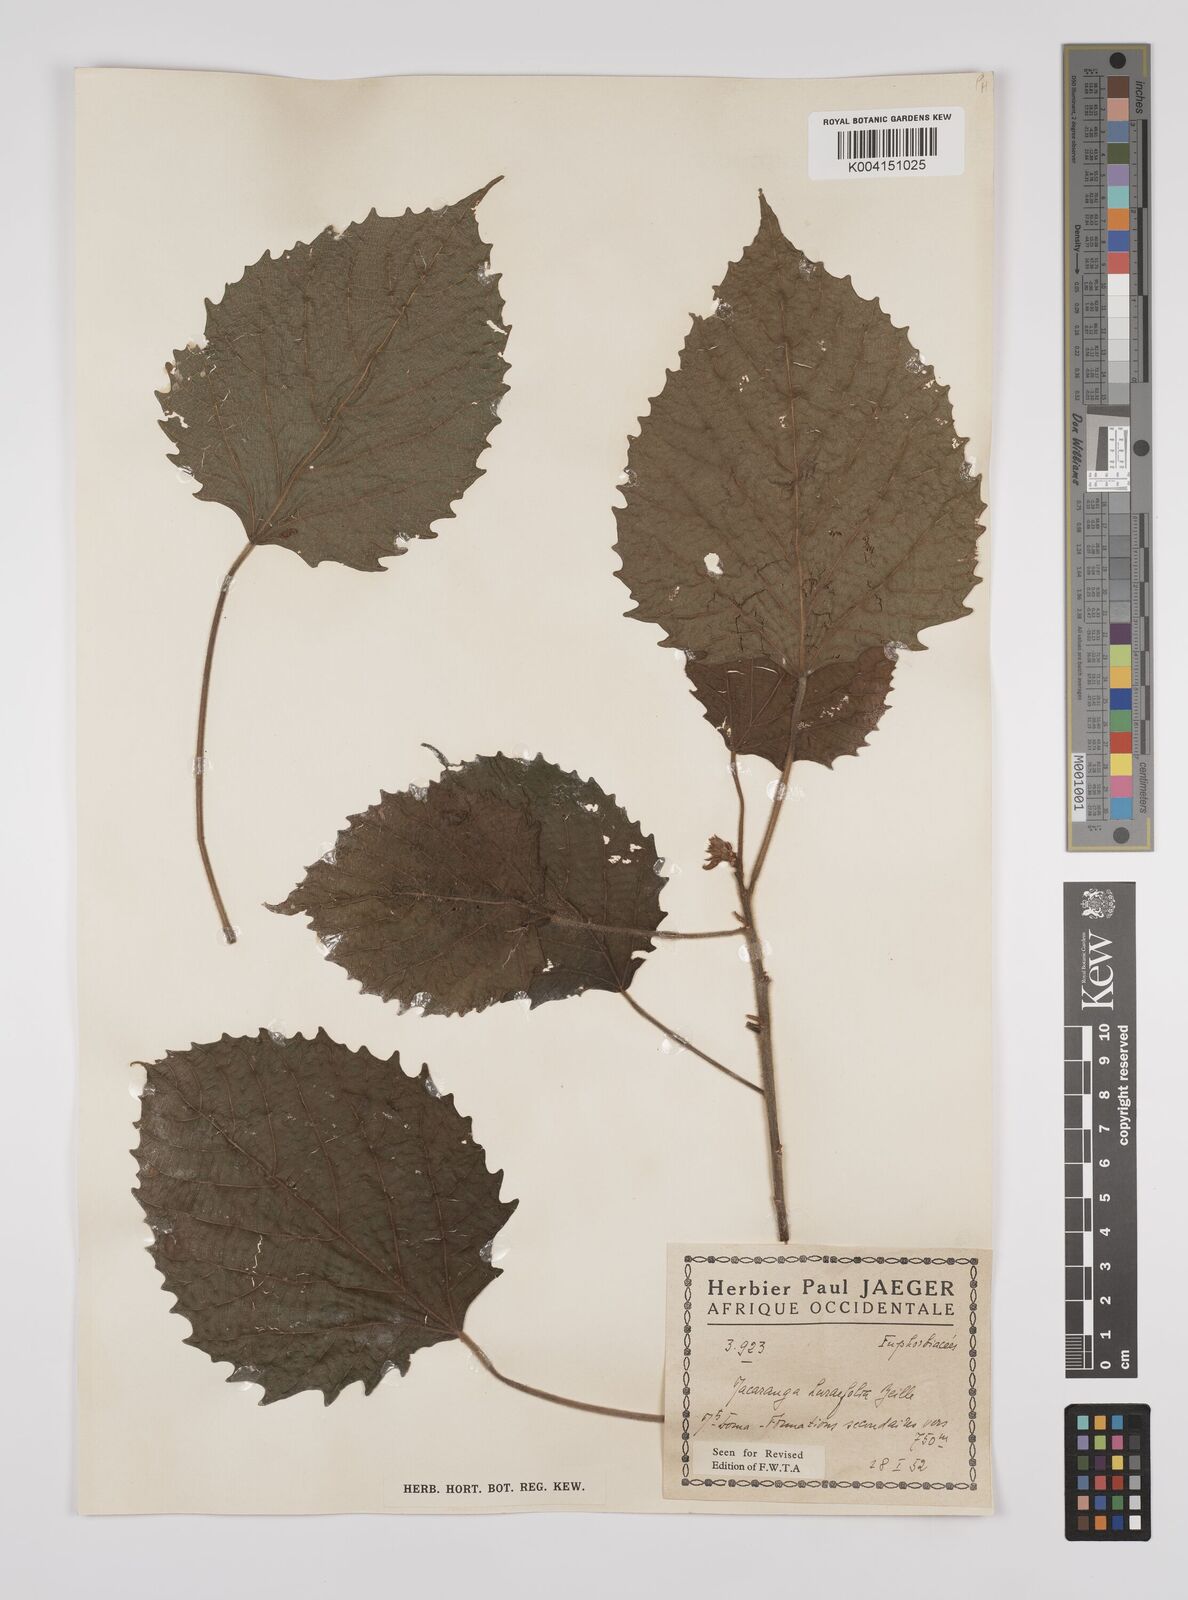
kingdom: Plantae
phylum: Tracheophyta
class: Magnoliopsida
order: Malpighiales
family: Euphorbiaceae
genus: Macaranga
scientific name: Macaranga hurifolia
